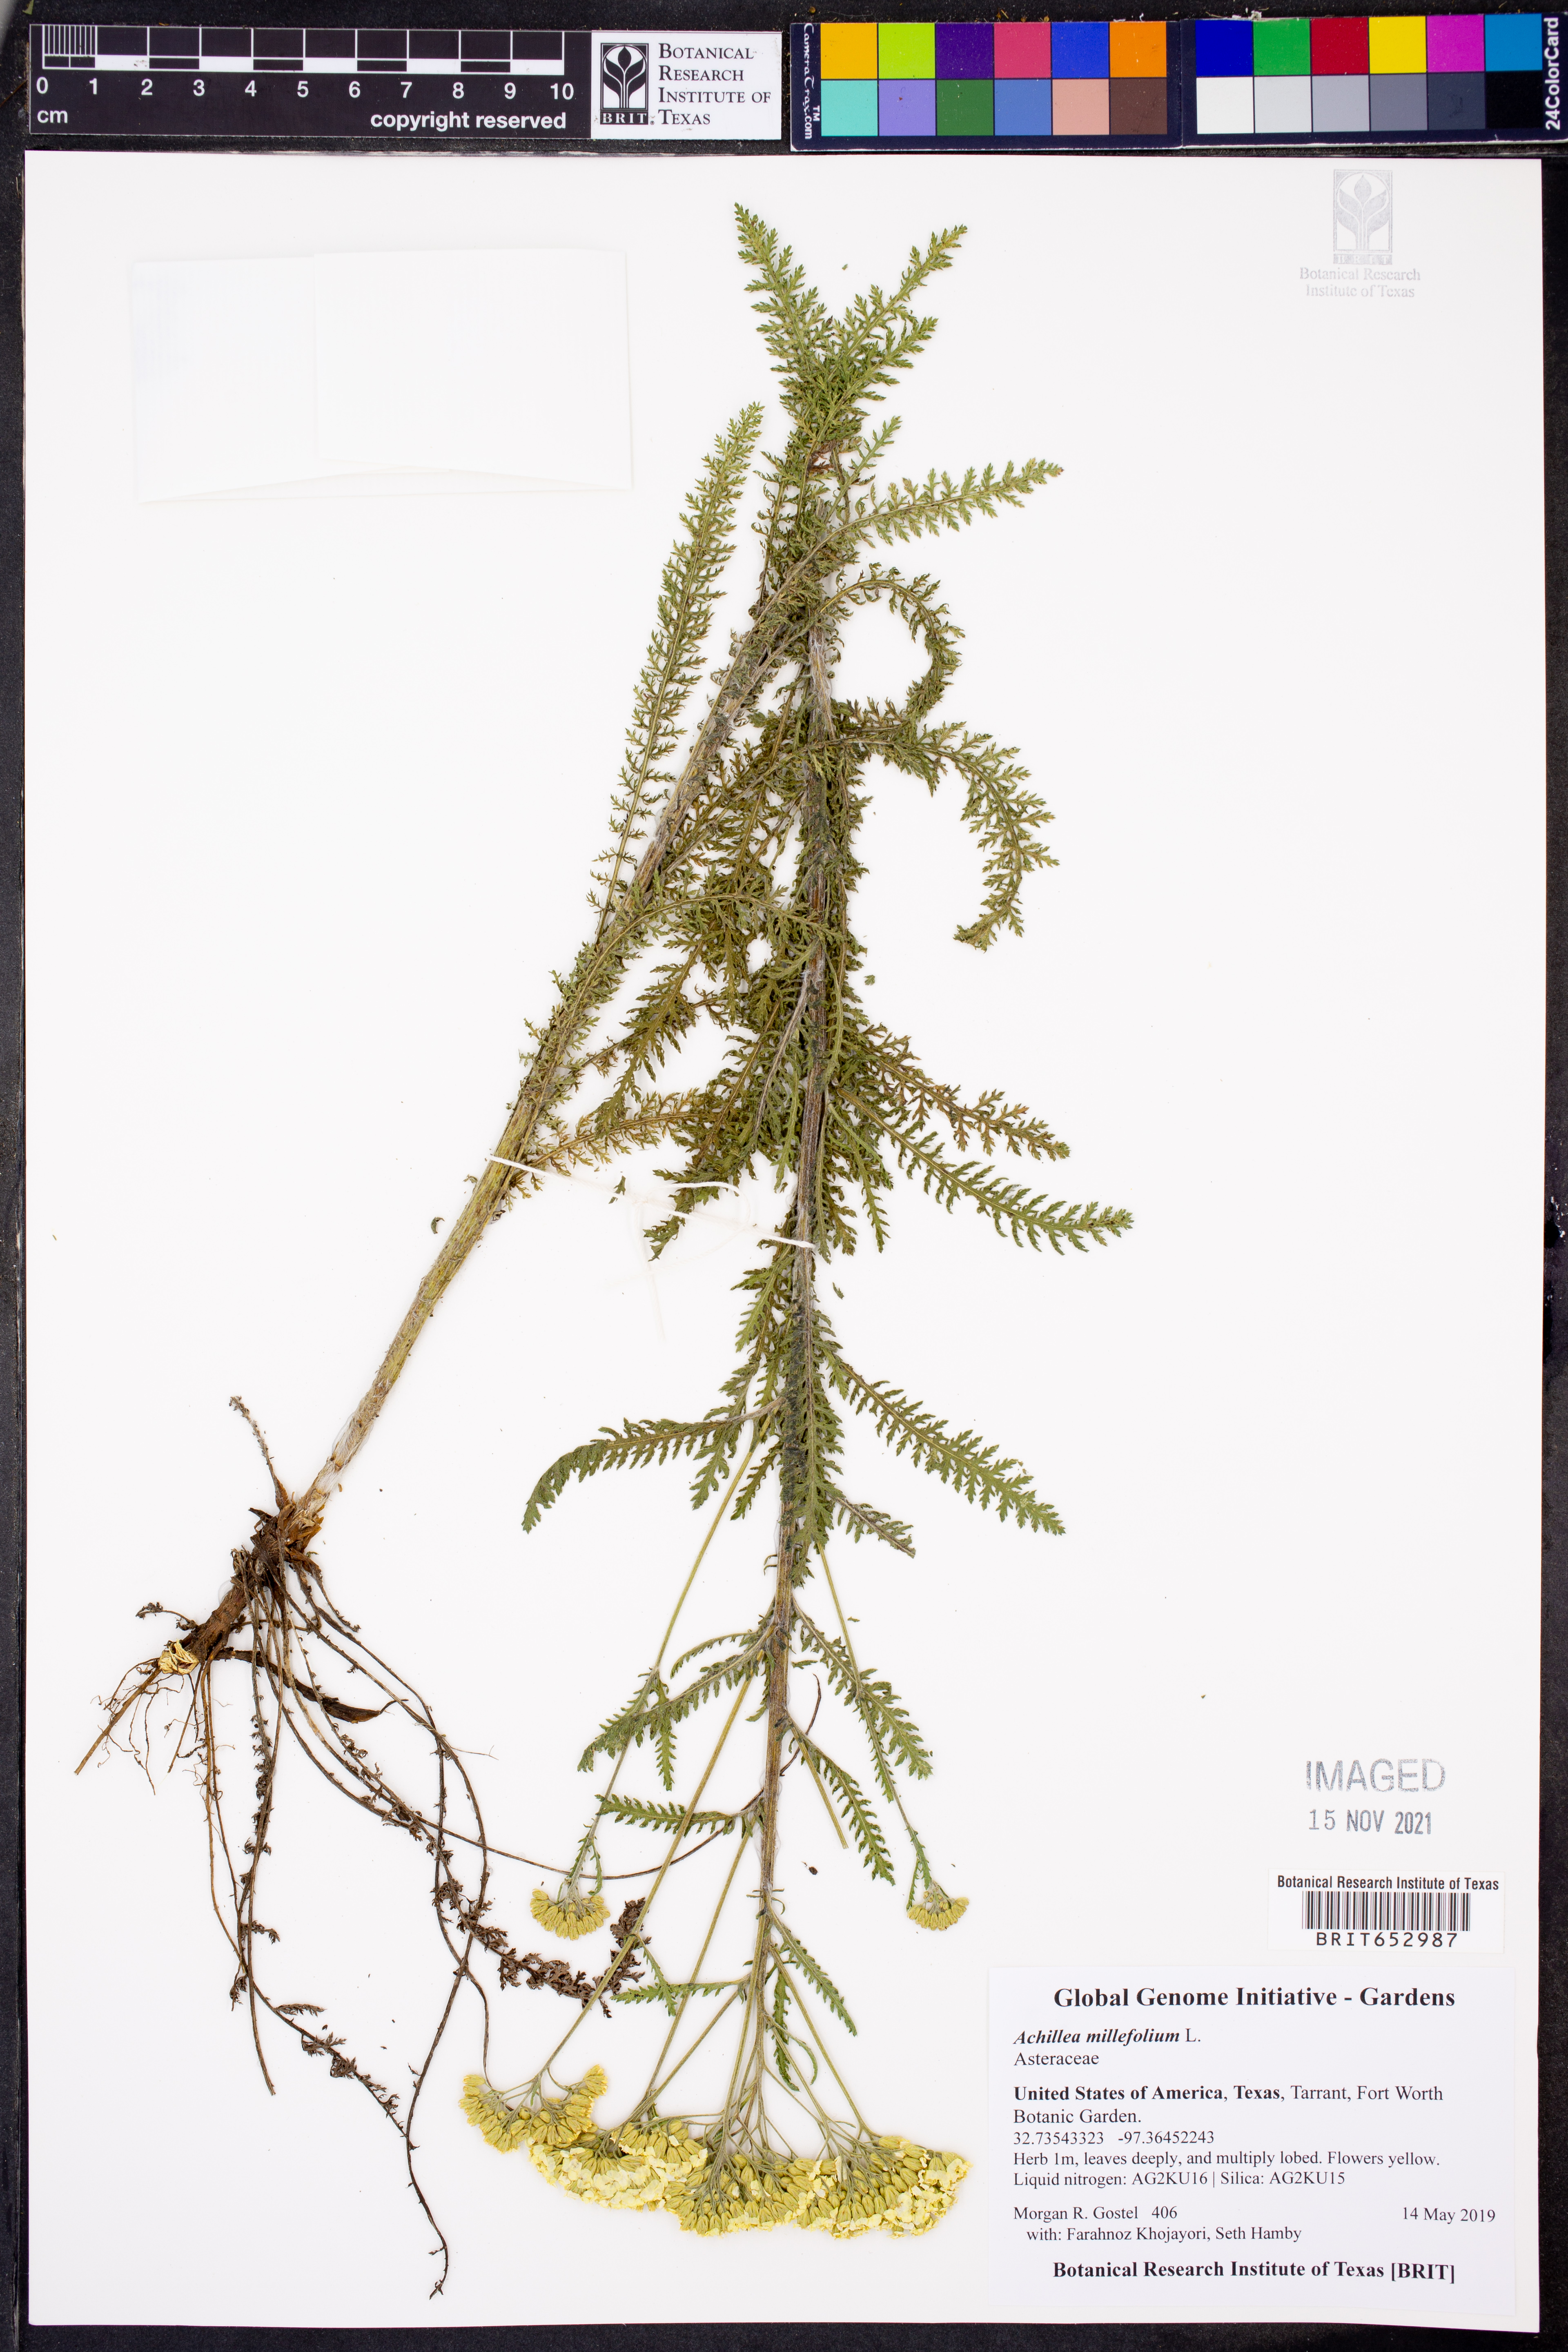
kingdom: Plantae
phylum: Tracheophyta
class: Magnoliopsida
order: Asterales
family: Asteraceae
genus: Achillea
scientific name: Achillea millefolium
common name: Yarrow
